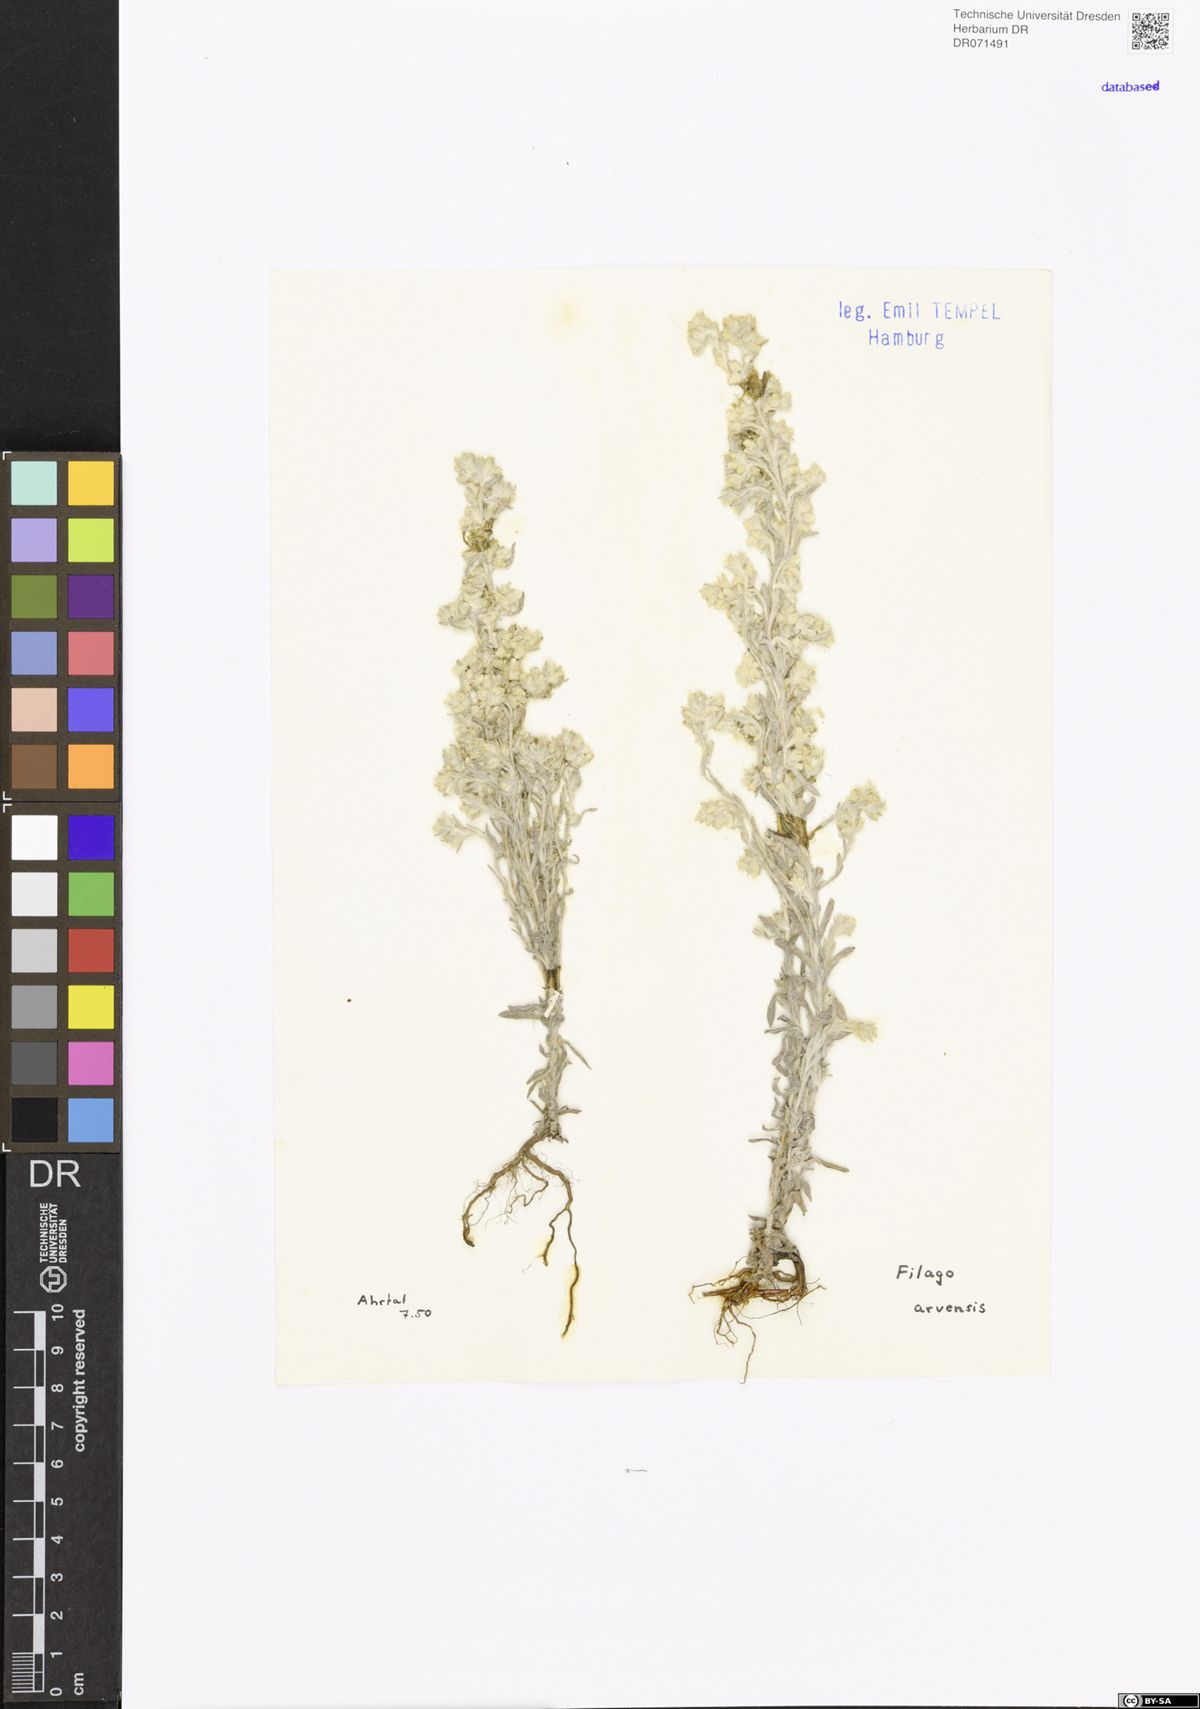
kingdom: Plantae
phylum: Tracheophyta
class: Magnoliopsida
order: Asterales
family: Asteraceae
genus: Filago
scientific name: Filago arvensis
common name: Field cudweed
